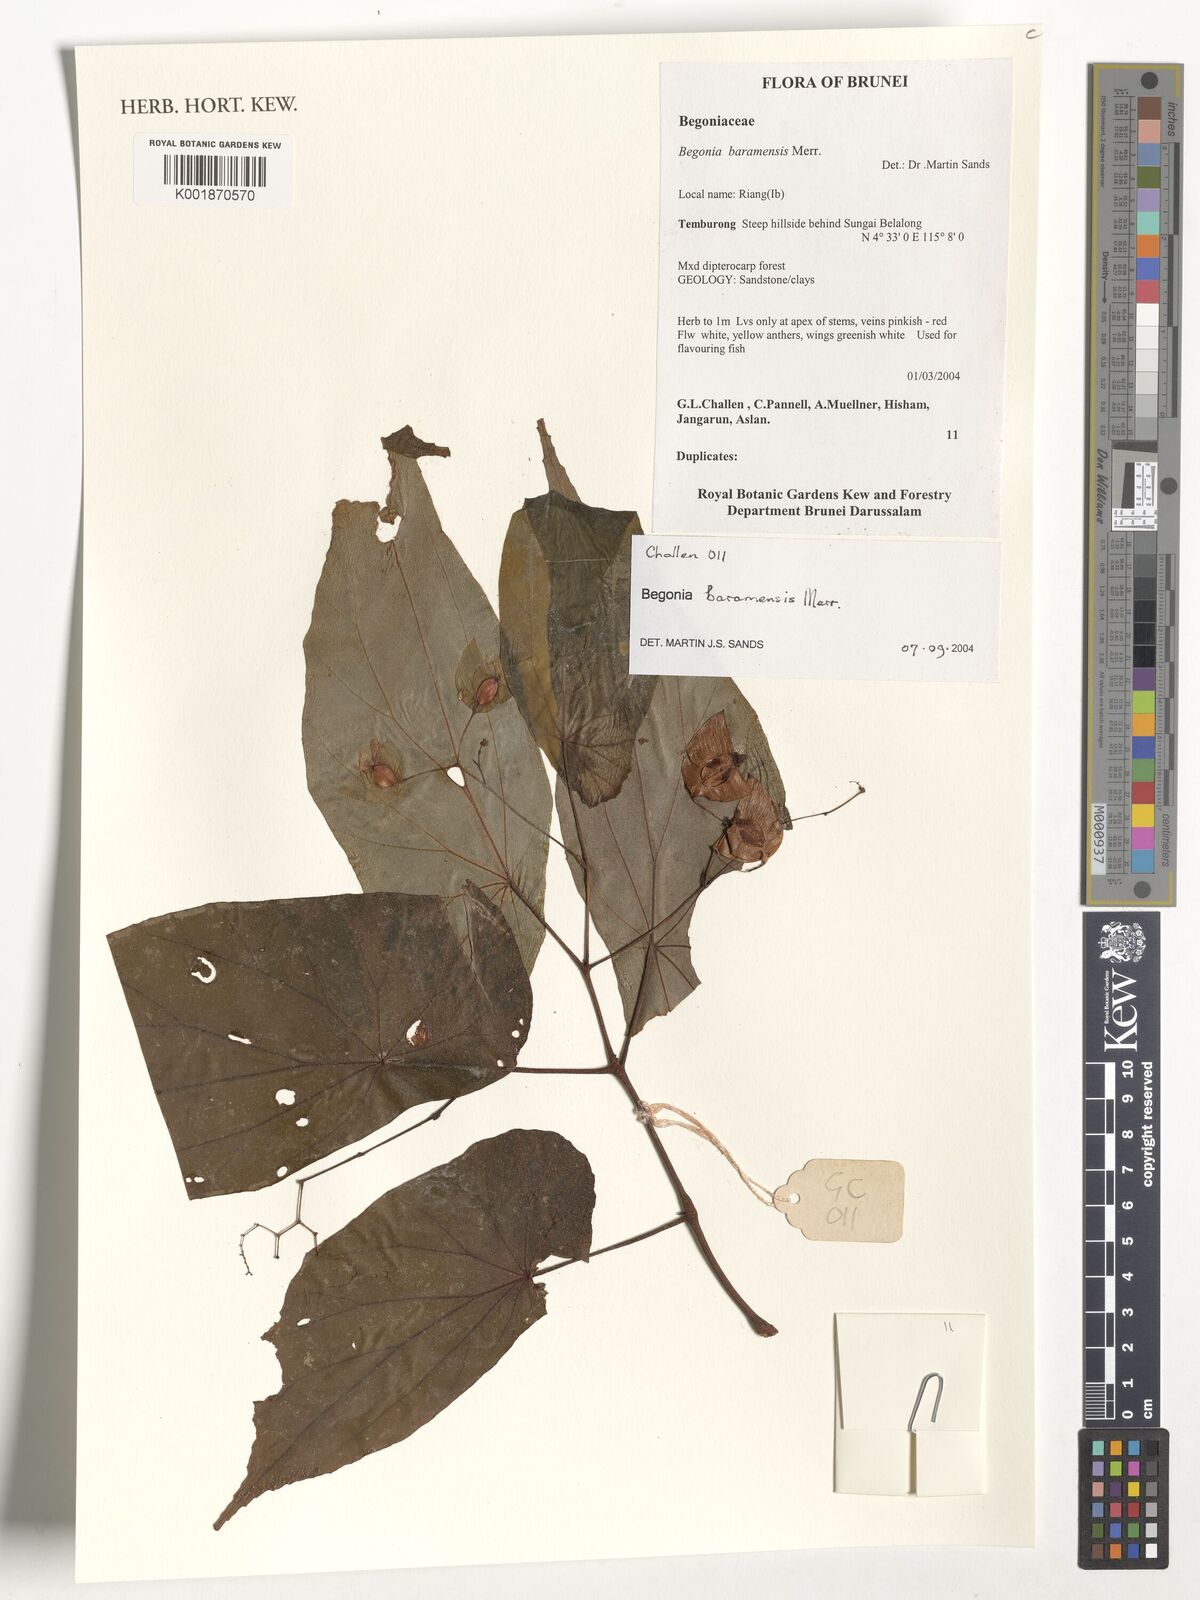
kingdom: Plantae
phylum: Tracheophyta
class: Magnoliopsida
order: Cucurbitales
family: Begoniaceae
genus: Begonia
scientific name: Begonia baramensis
